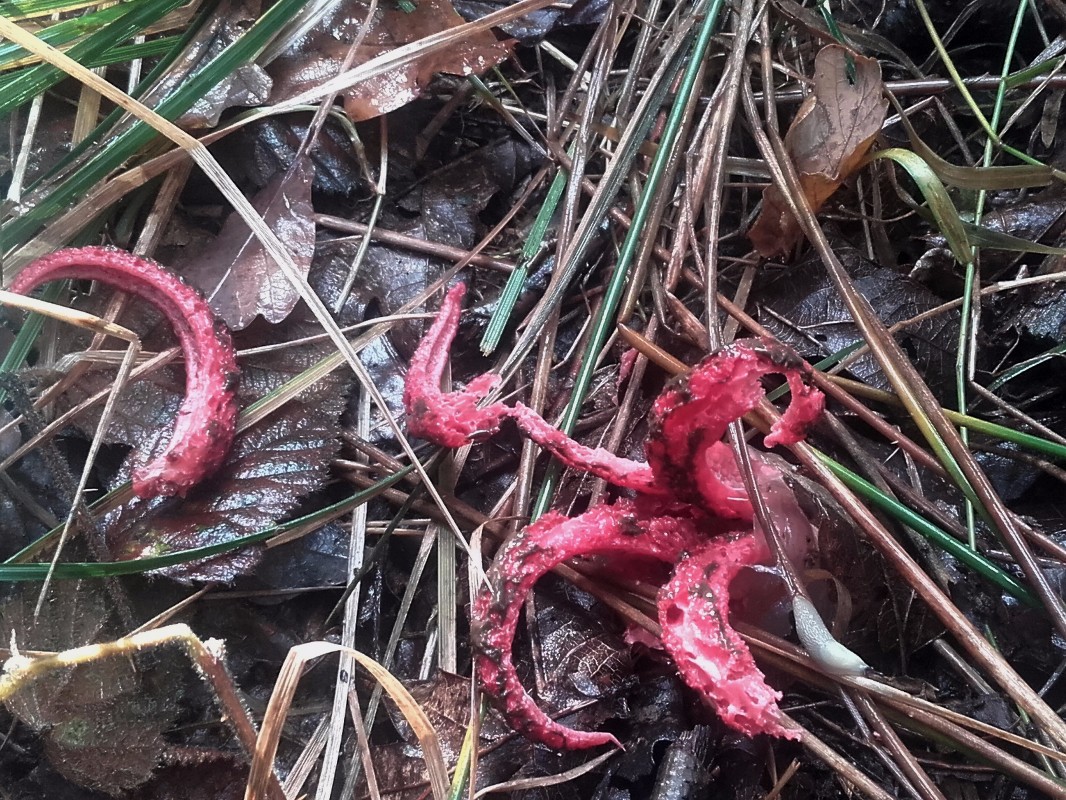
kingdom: Fungi
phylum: Basidiomycota
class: Agaricomycetes
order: Phallales
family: Phallaceae
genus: Clathrus
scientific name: Clathrus archeri
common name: blækspruttesvamp
